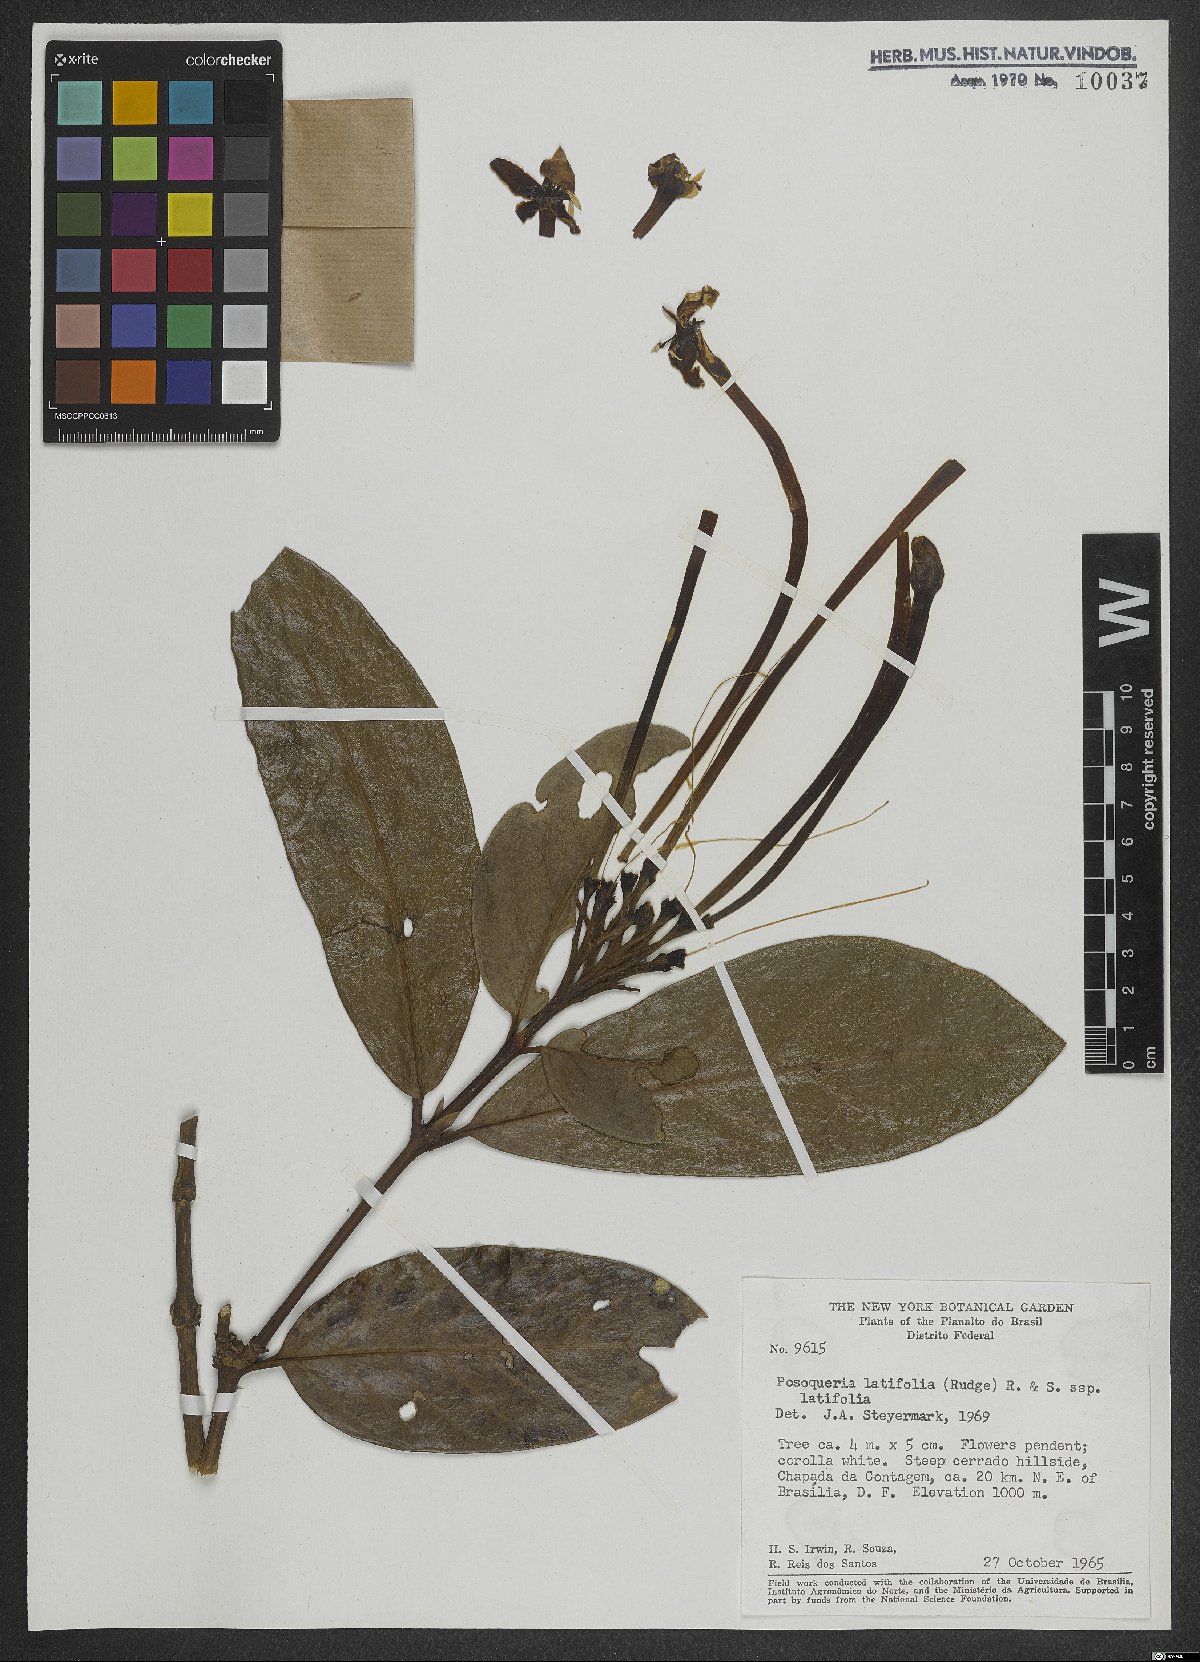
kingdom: Plantae
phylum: Tracheophyta
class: Magnoliopsida
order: Gentianales
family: Rubiaceae
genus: Posoqueria
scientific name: Posoqueria latifolia
